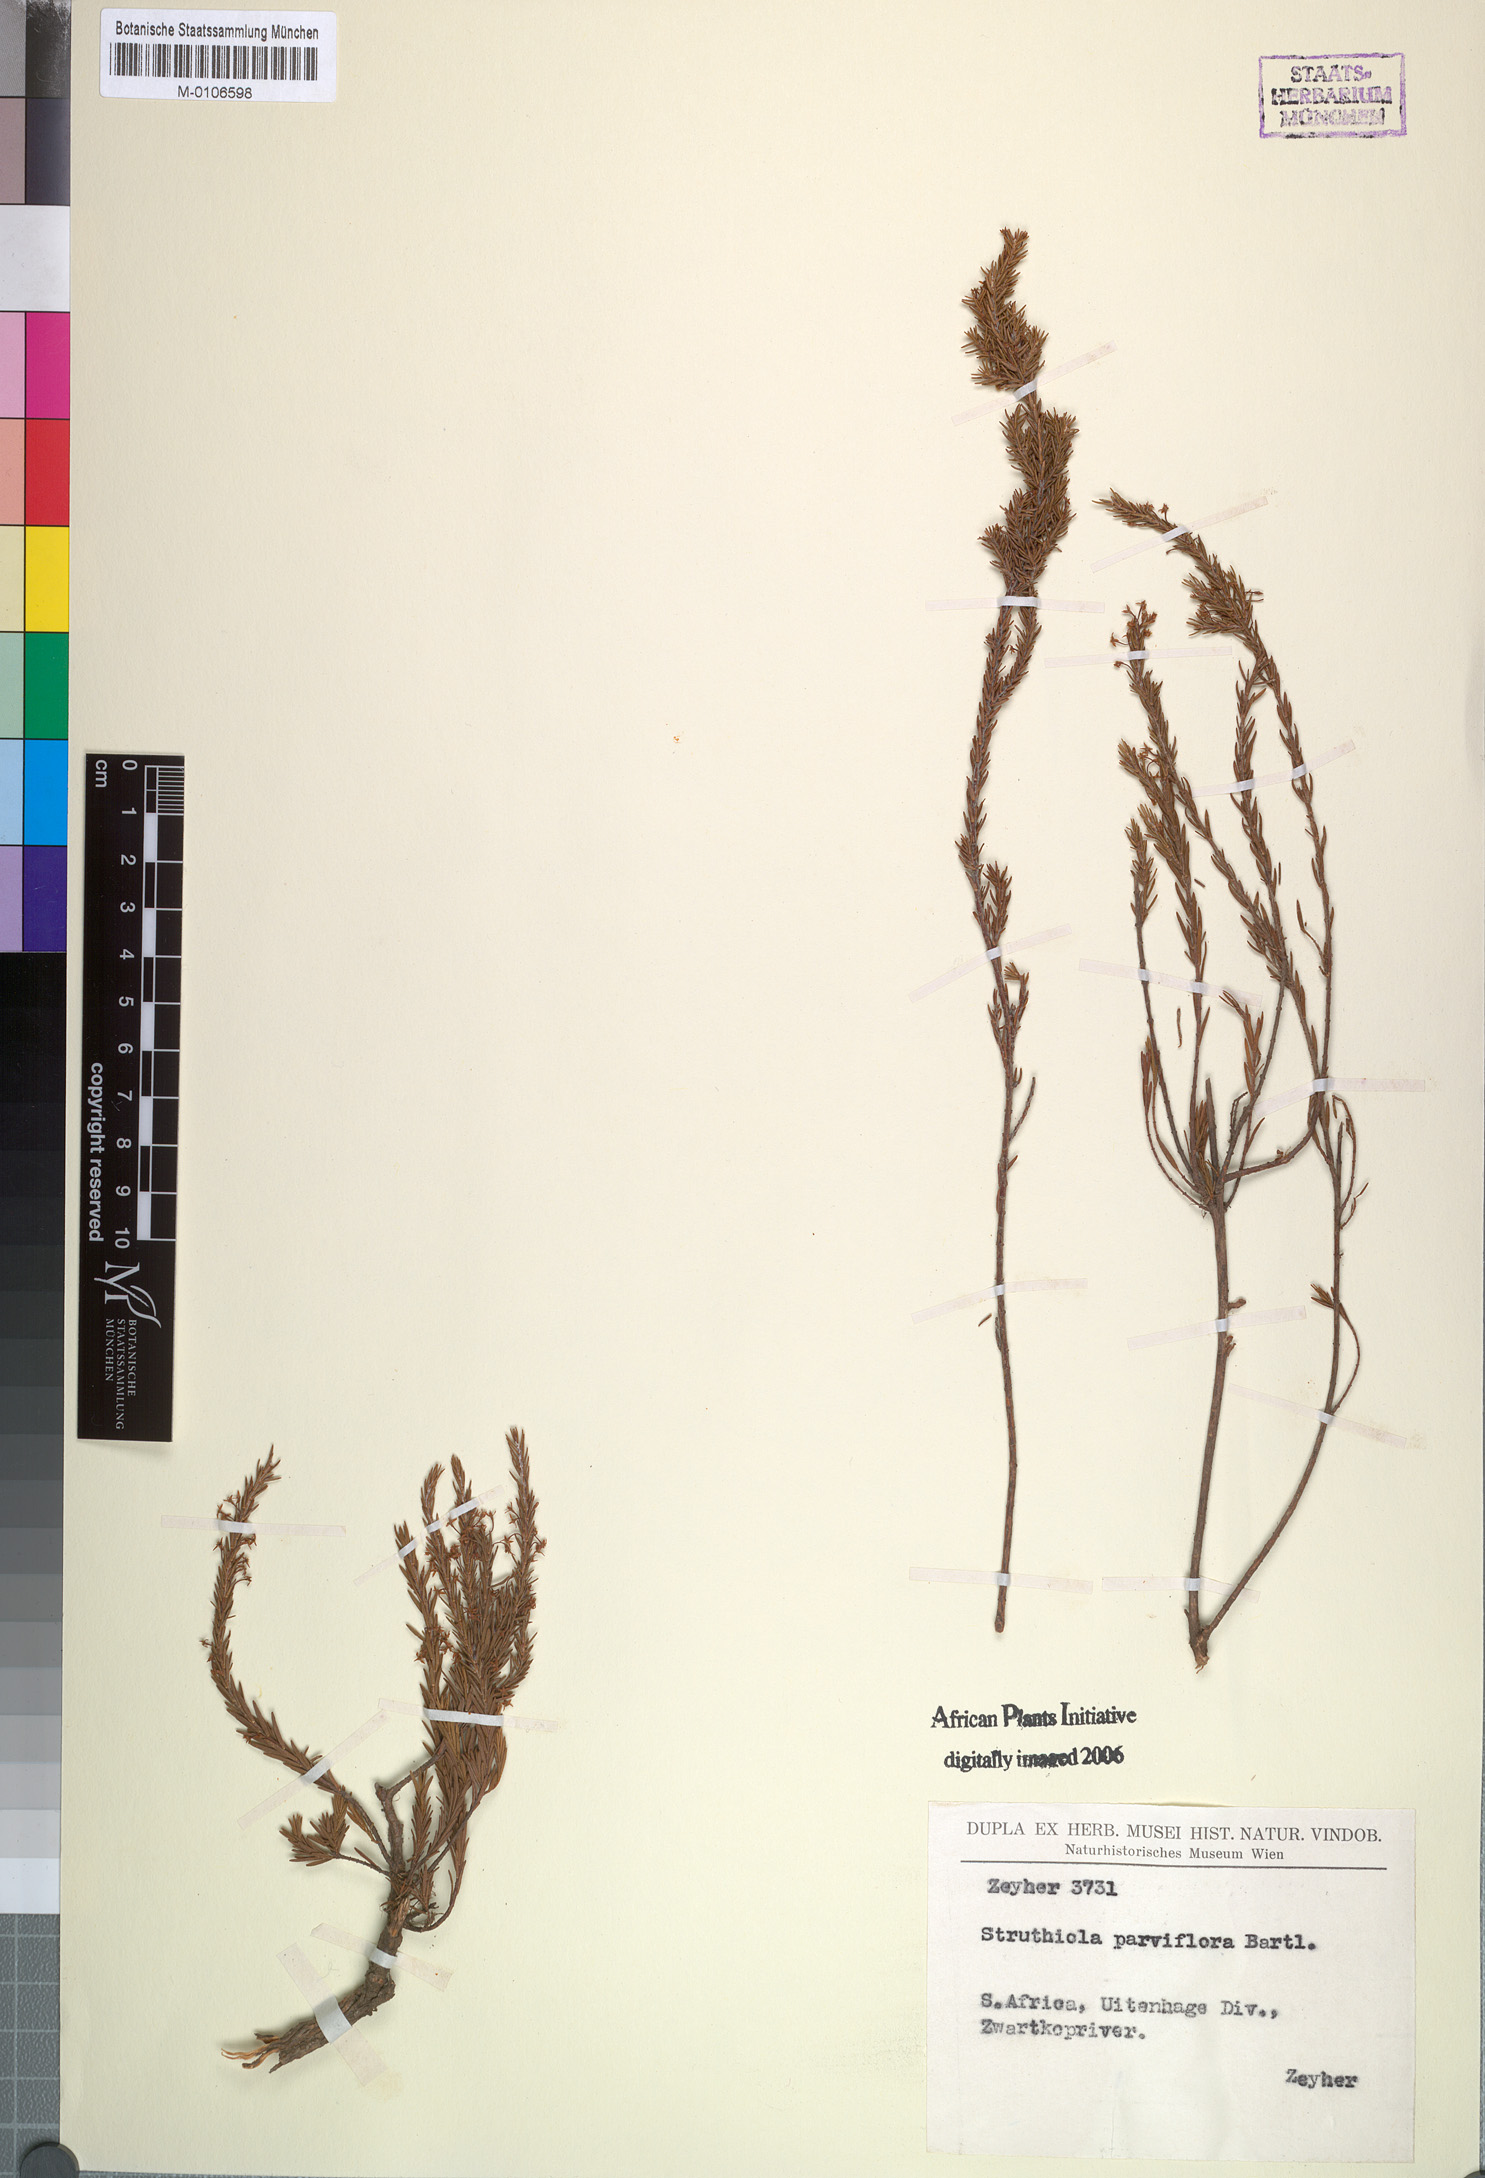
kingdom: Plantae
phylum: Tracheophyta
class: Magnoliopsida
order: Malvales
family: Thymelaeaceae
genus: Struthiola
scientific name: Struthiola parviflora
